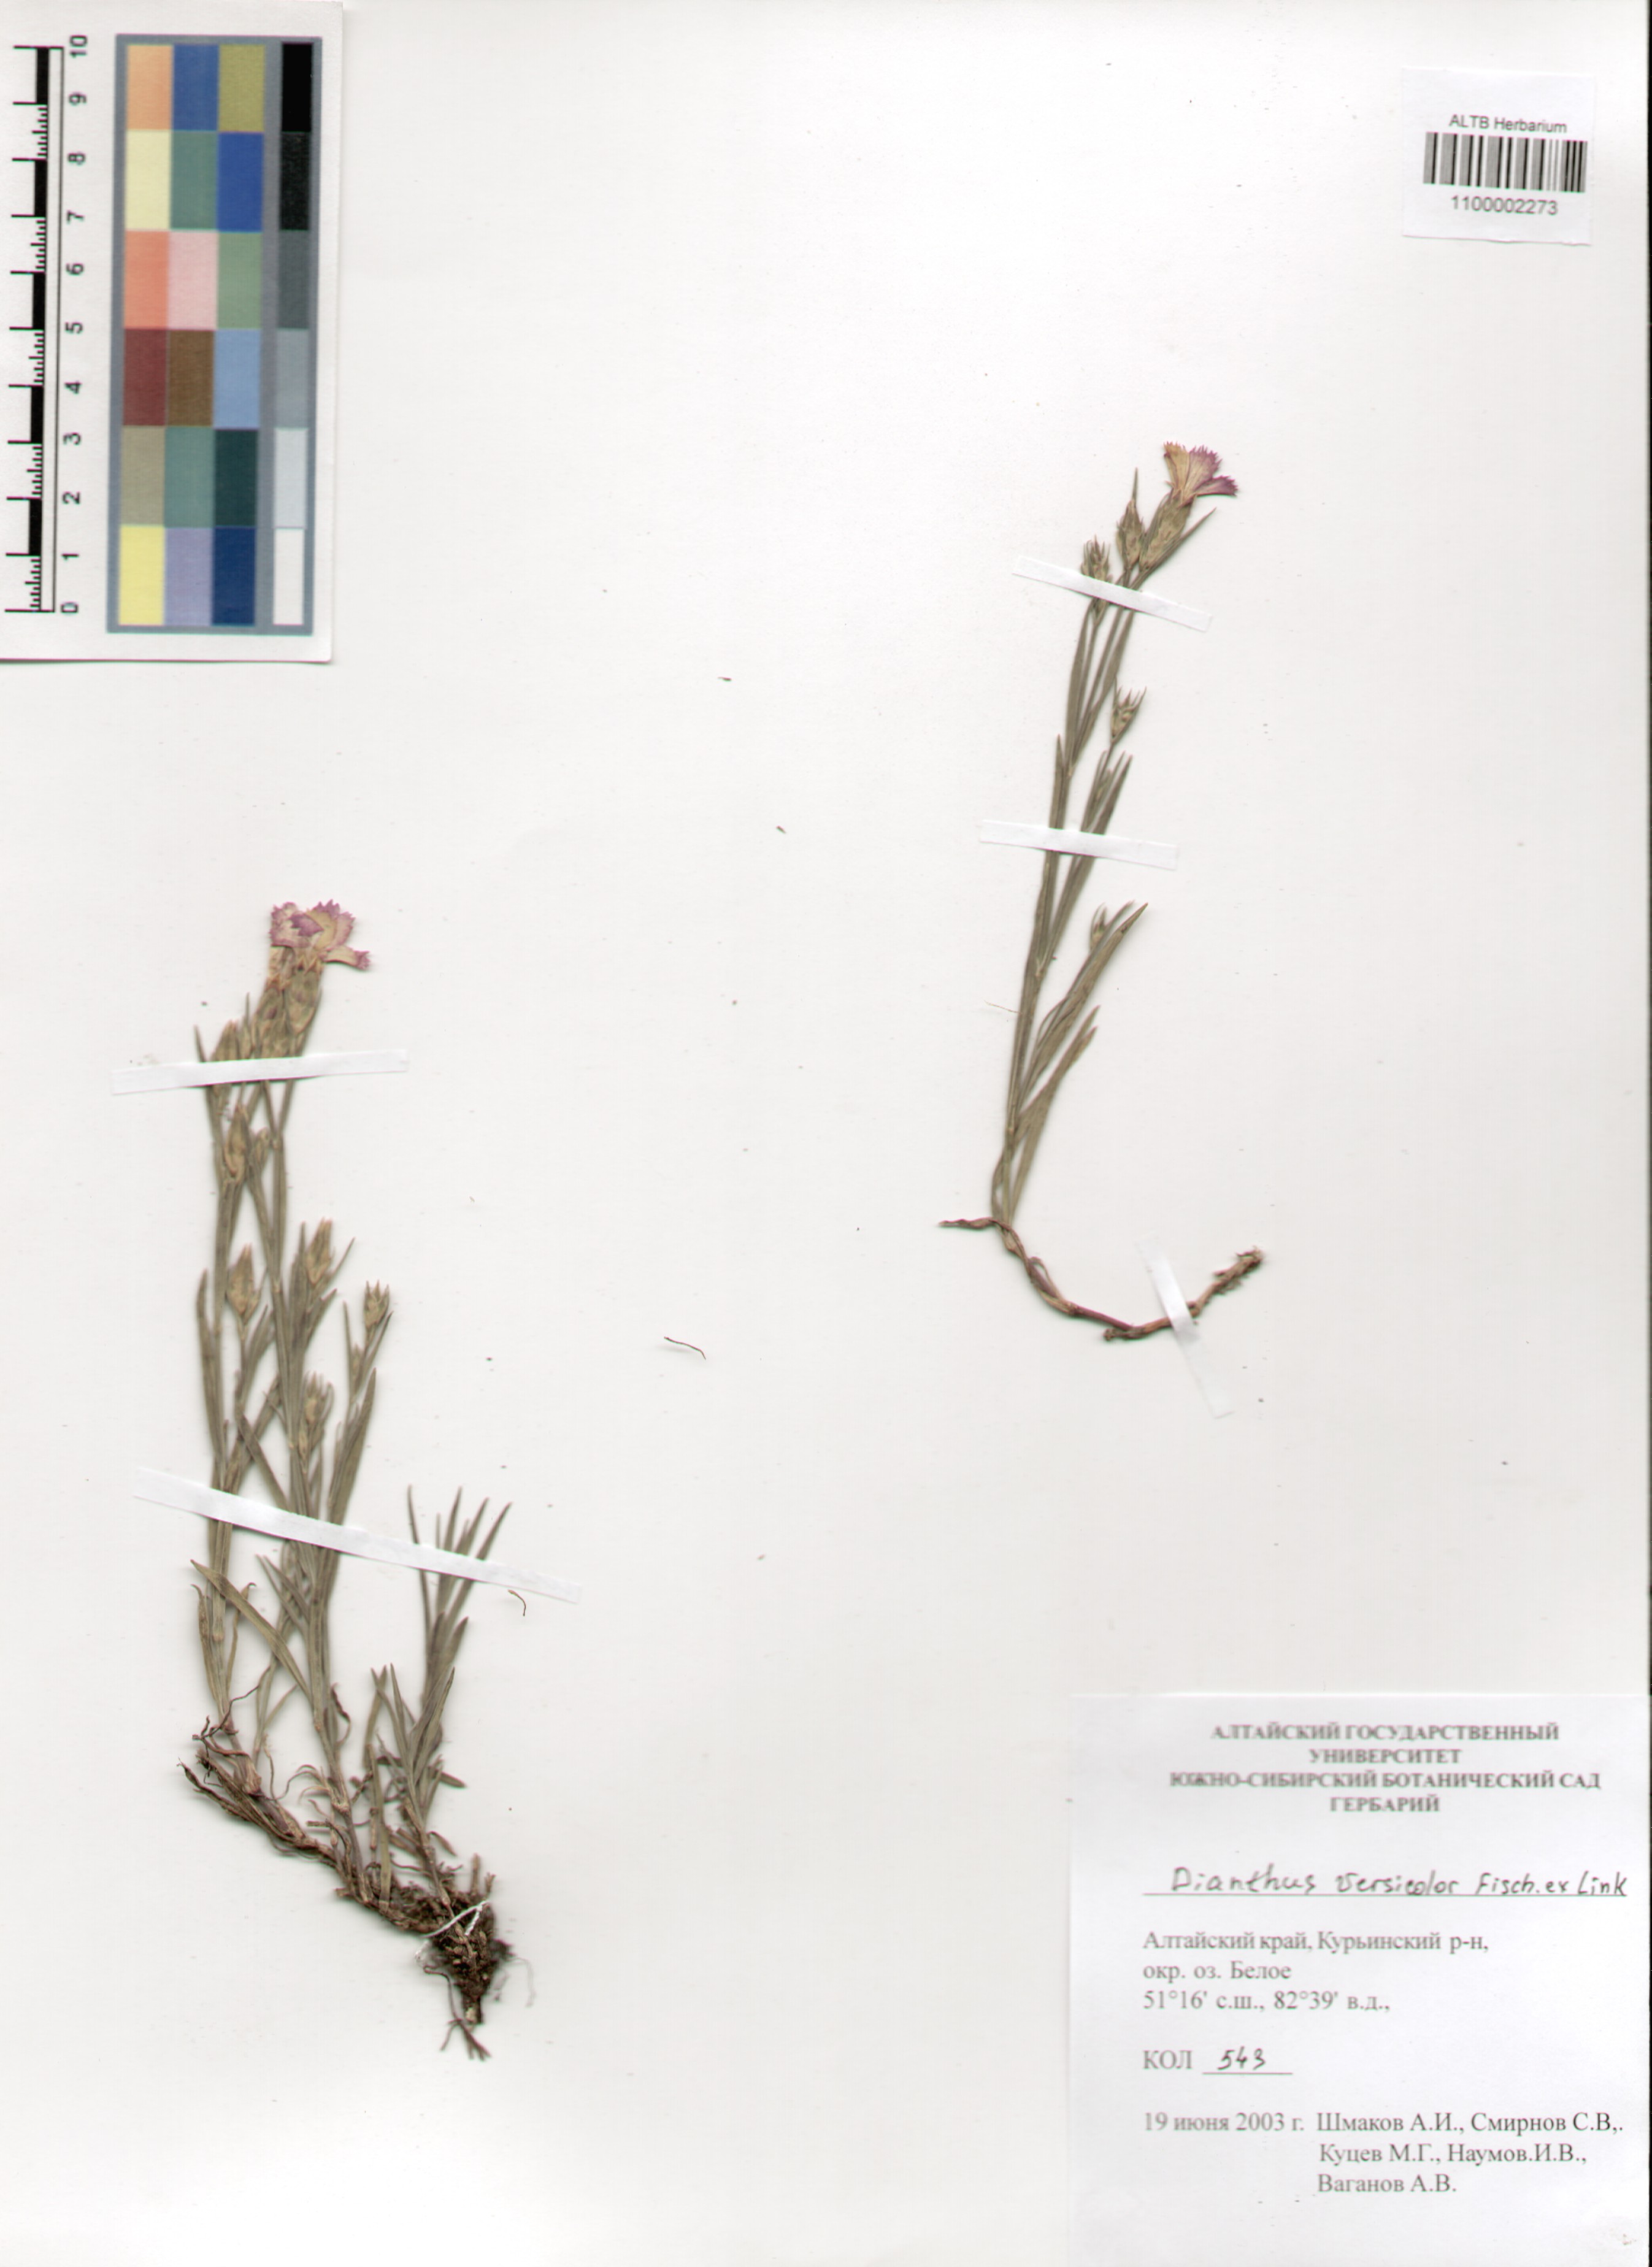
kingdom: Plantae
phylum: Tracheophyta
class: Magnoliopsida
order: Caryophyllales
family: Caryophyllaceae
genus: Dianthus
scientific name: Dianthus chinensis
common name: Rainbow pink
